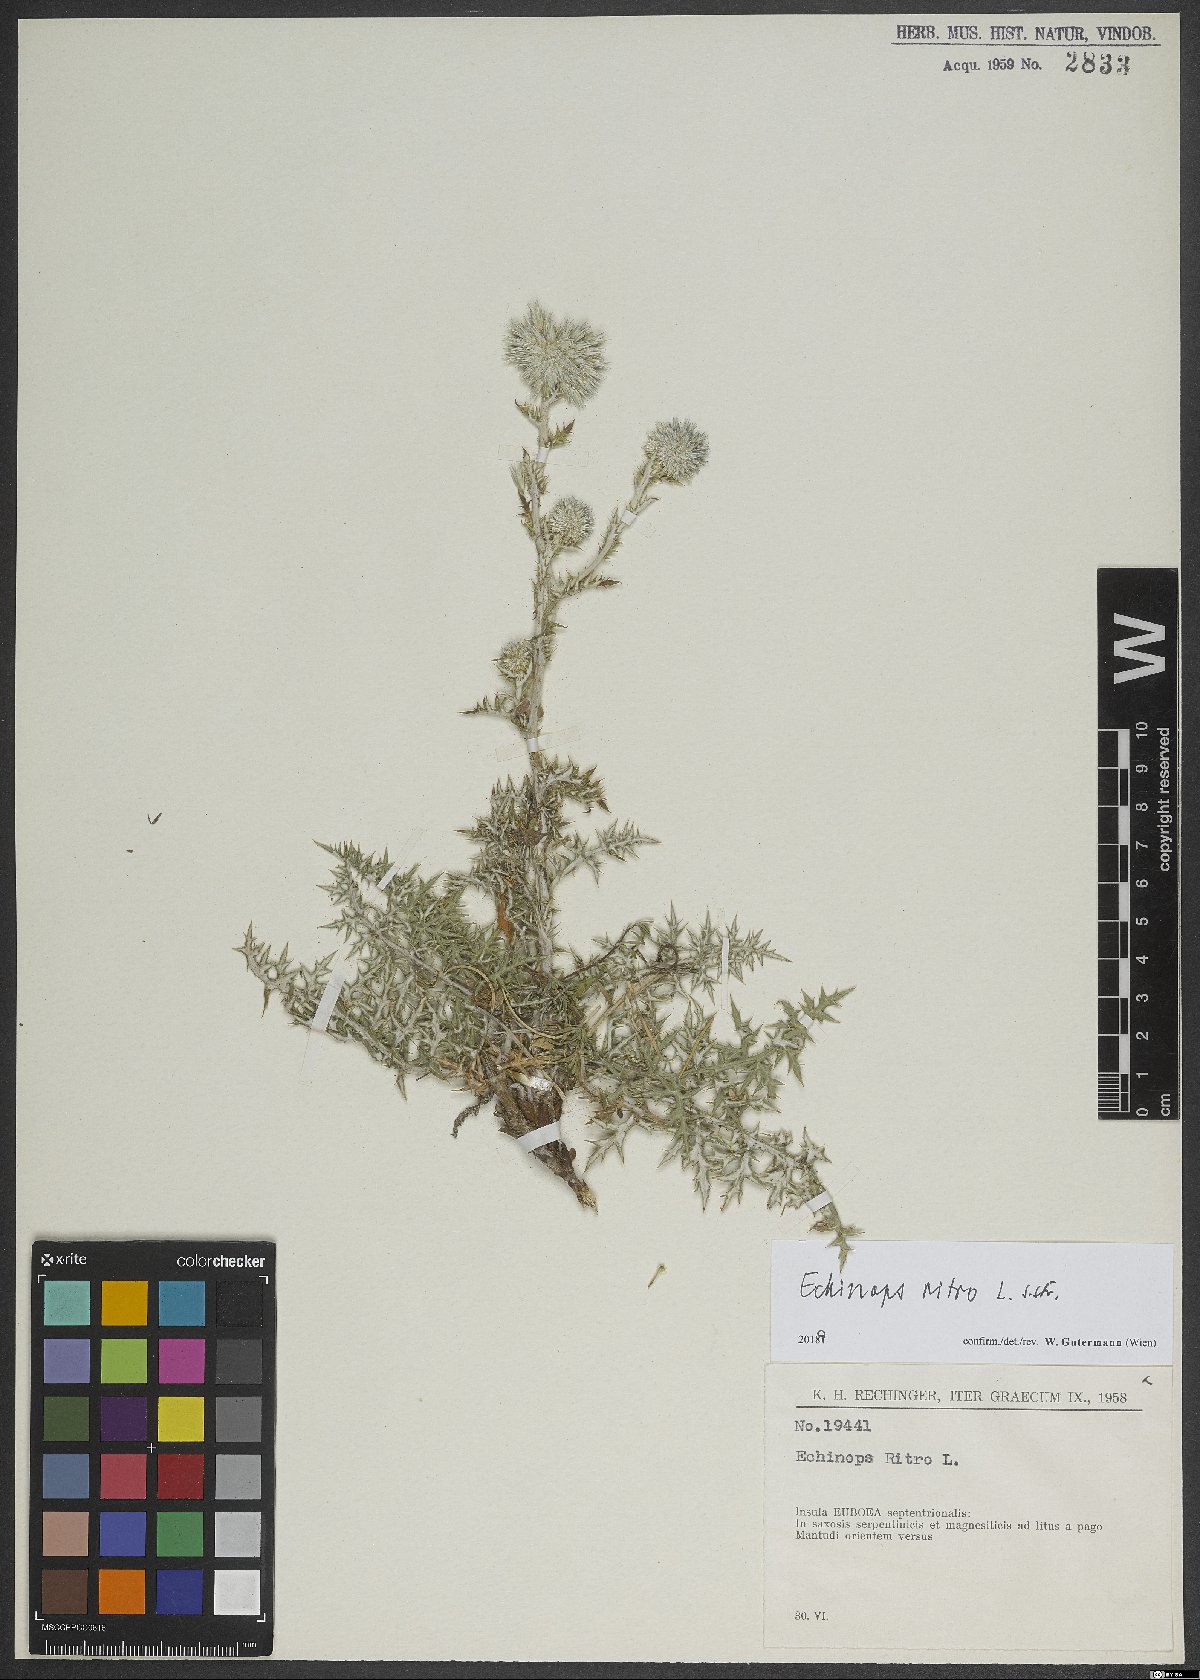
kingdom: Plantae
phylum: Tracheophyta
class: Magnoliopsida
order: Asterales
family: Asteraceae
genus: Echinops
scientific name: Echinops ritro
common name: Globe thistle
